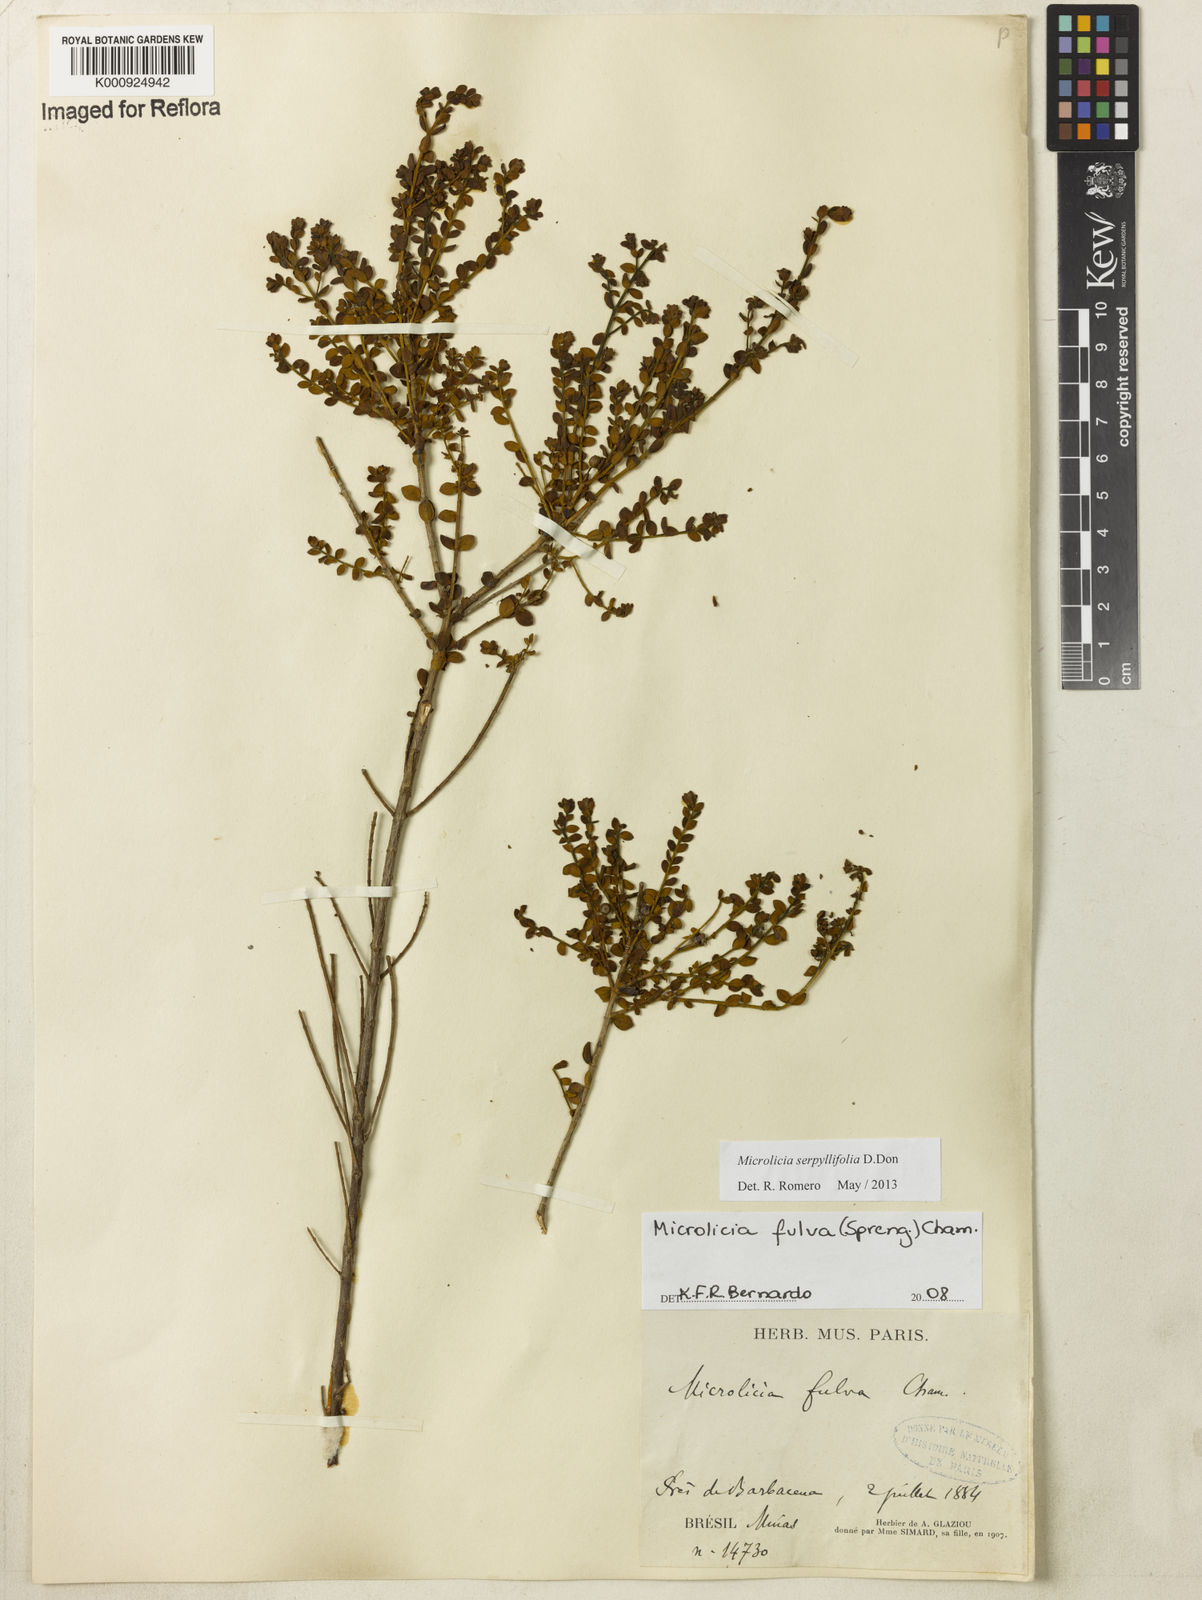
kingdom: Plantae
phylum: Tracheophyta
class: Magnoliopsida
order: Myrtales
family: Melastomataceae
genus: Microlicia
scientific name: Microlicia fulva
